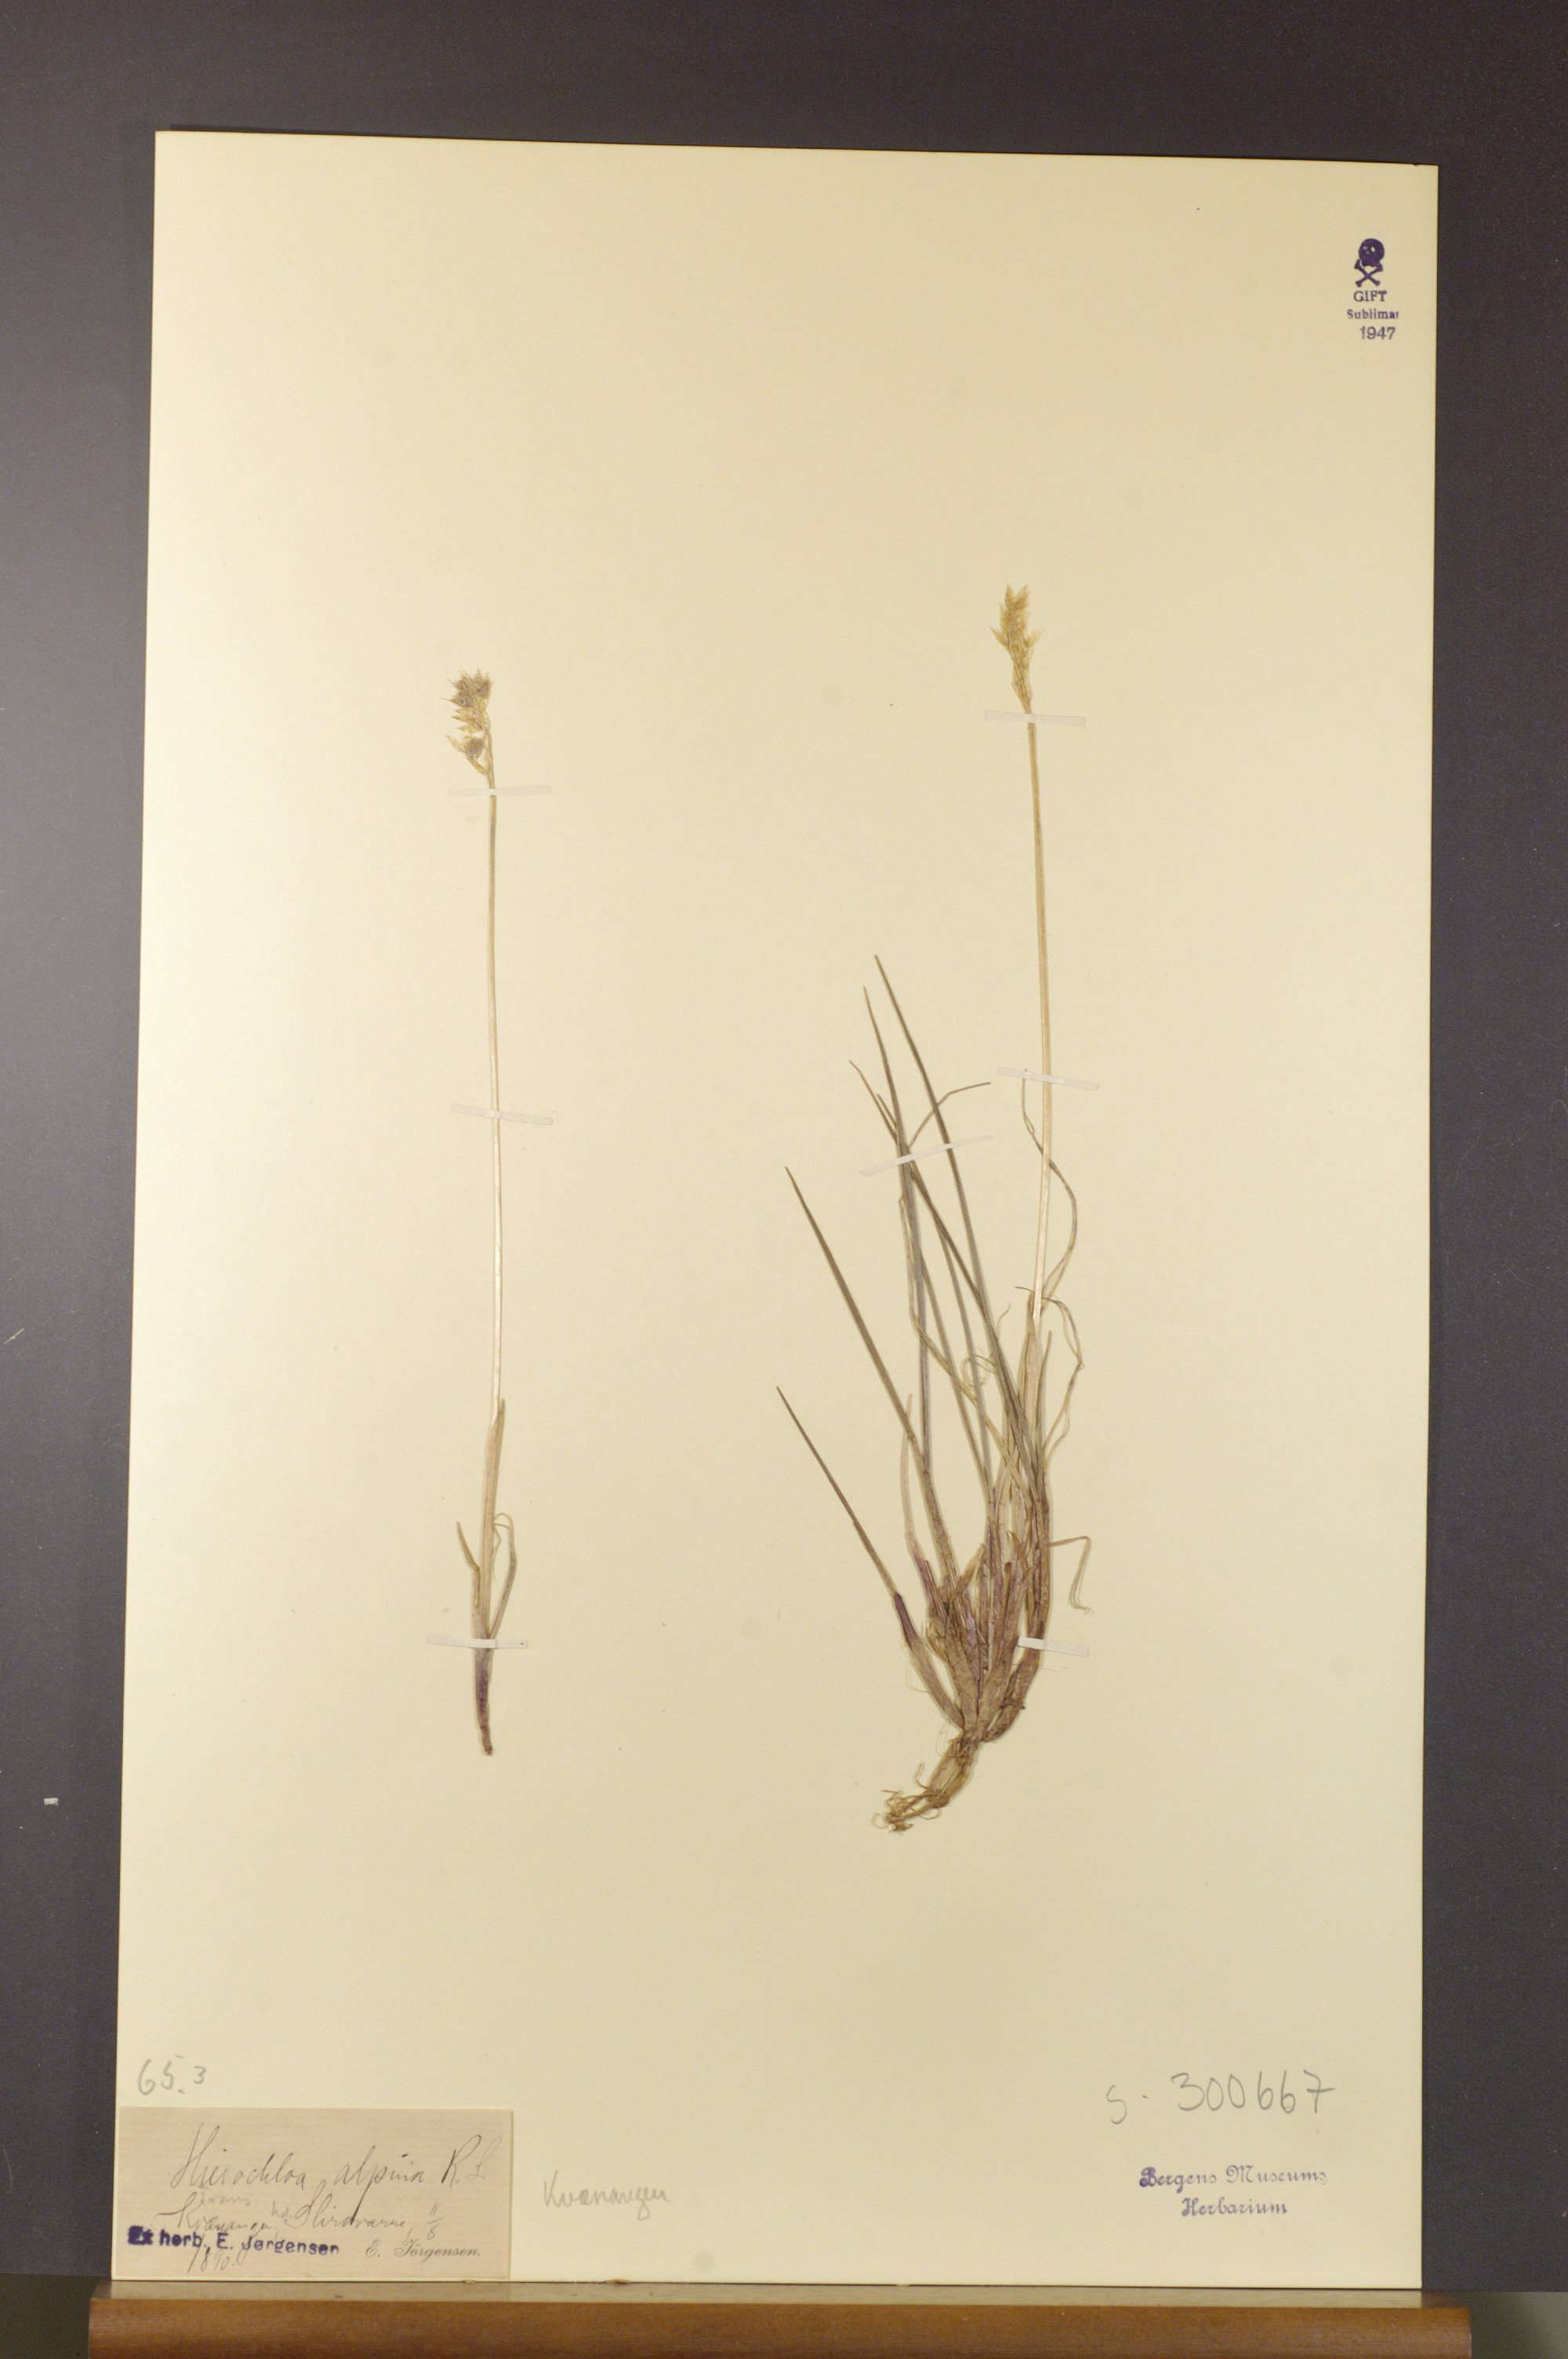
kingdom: Plantae
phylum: Tracheophyta
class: Liliopsida
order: Poales
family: Poaceae
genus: Anthoxanthum
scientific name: Anthoxanthum monticola
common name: Alpine sweetgrass
